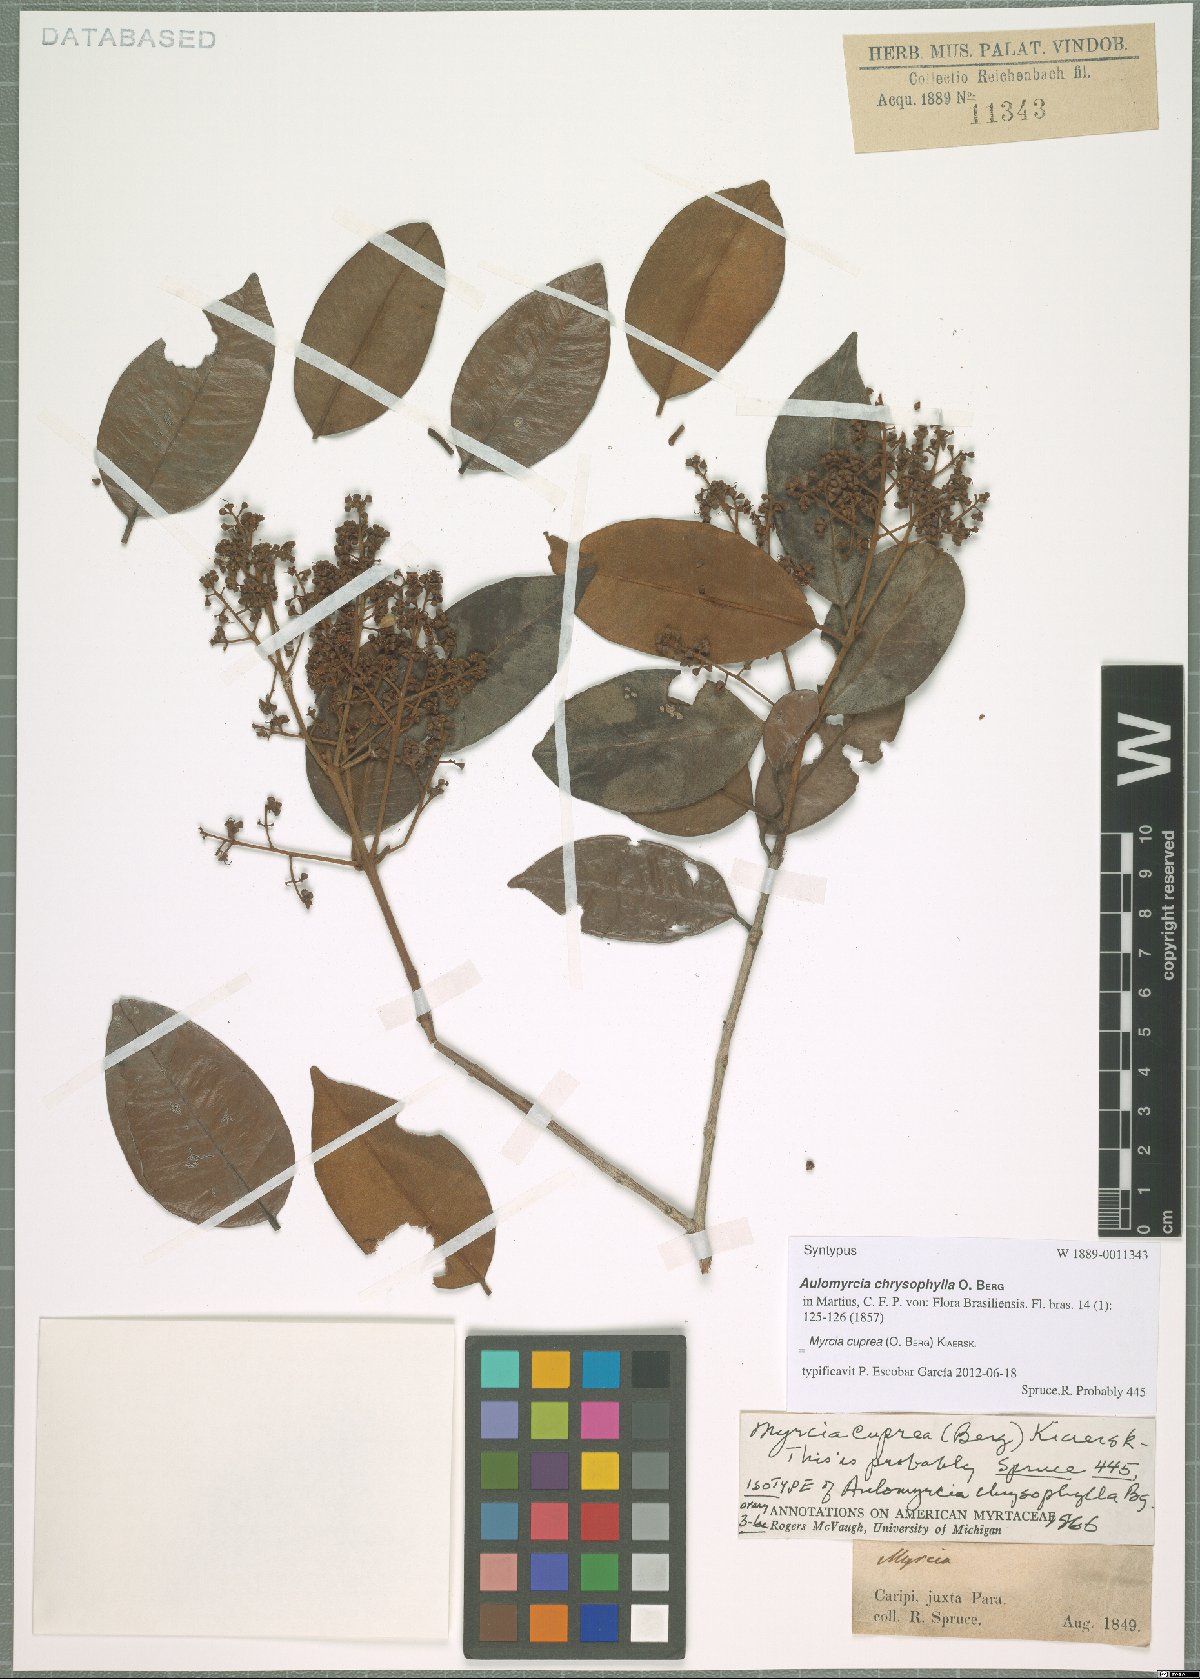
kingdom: Plantae
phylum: Tracheophyta
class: Magnoliopsida
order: Myrtales
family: Myrtaceae
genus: Myrcia
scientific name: Myrcia cuprea
